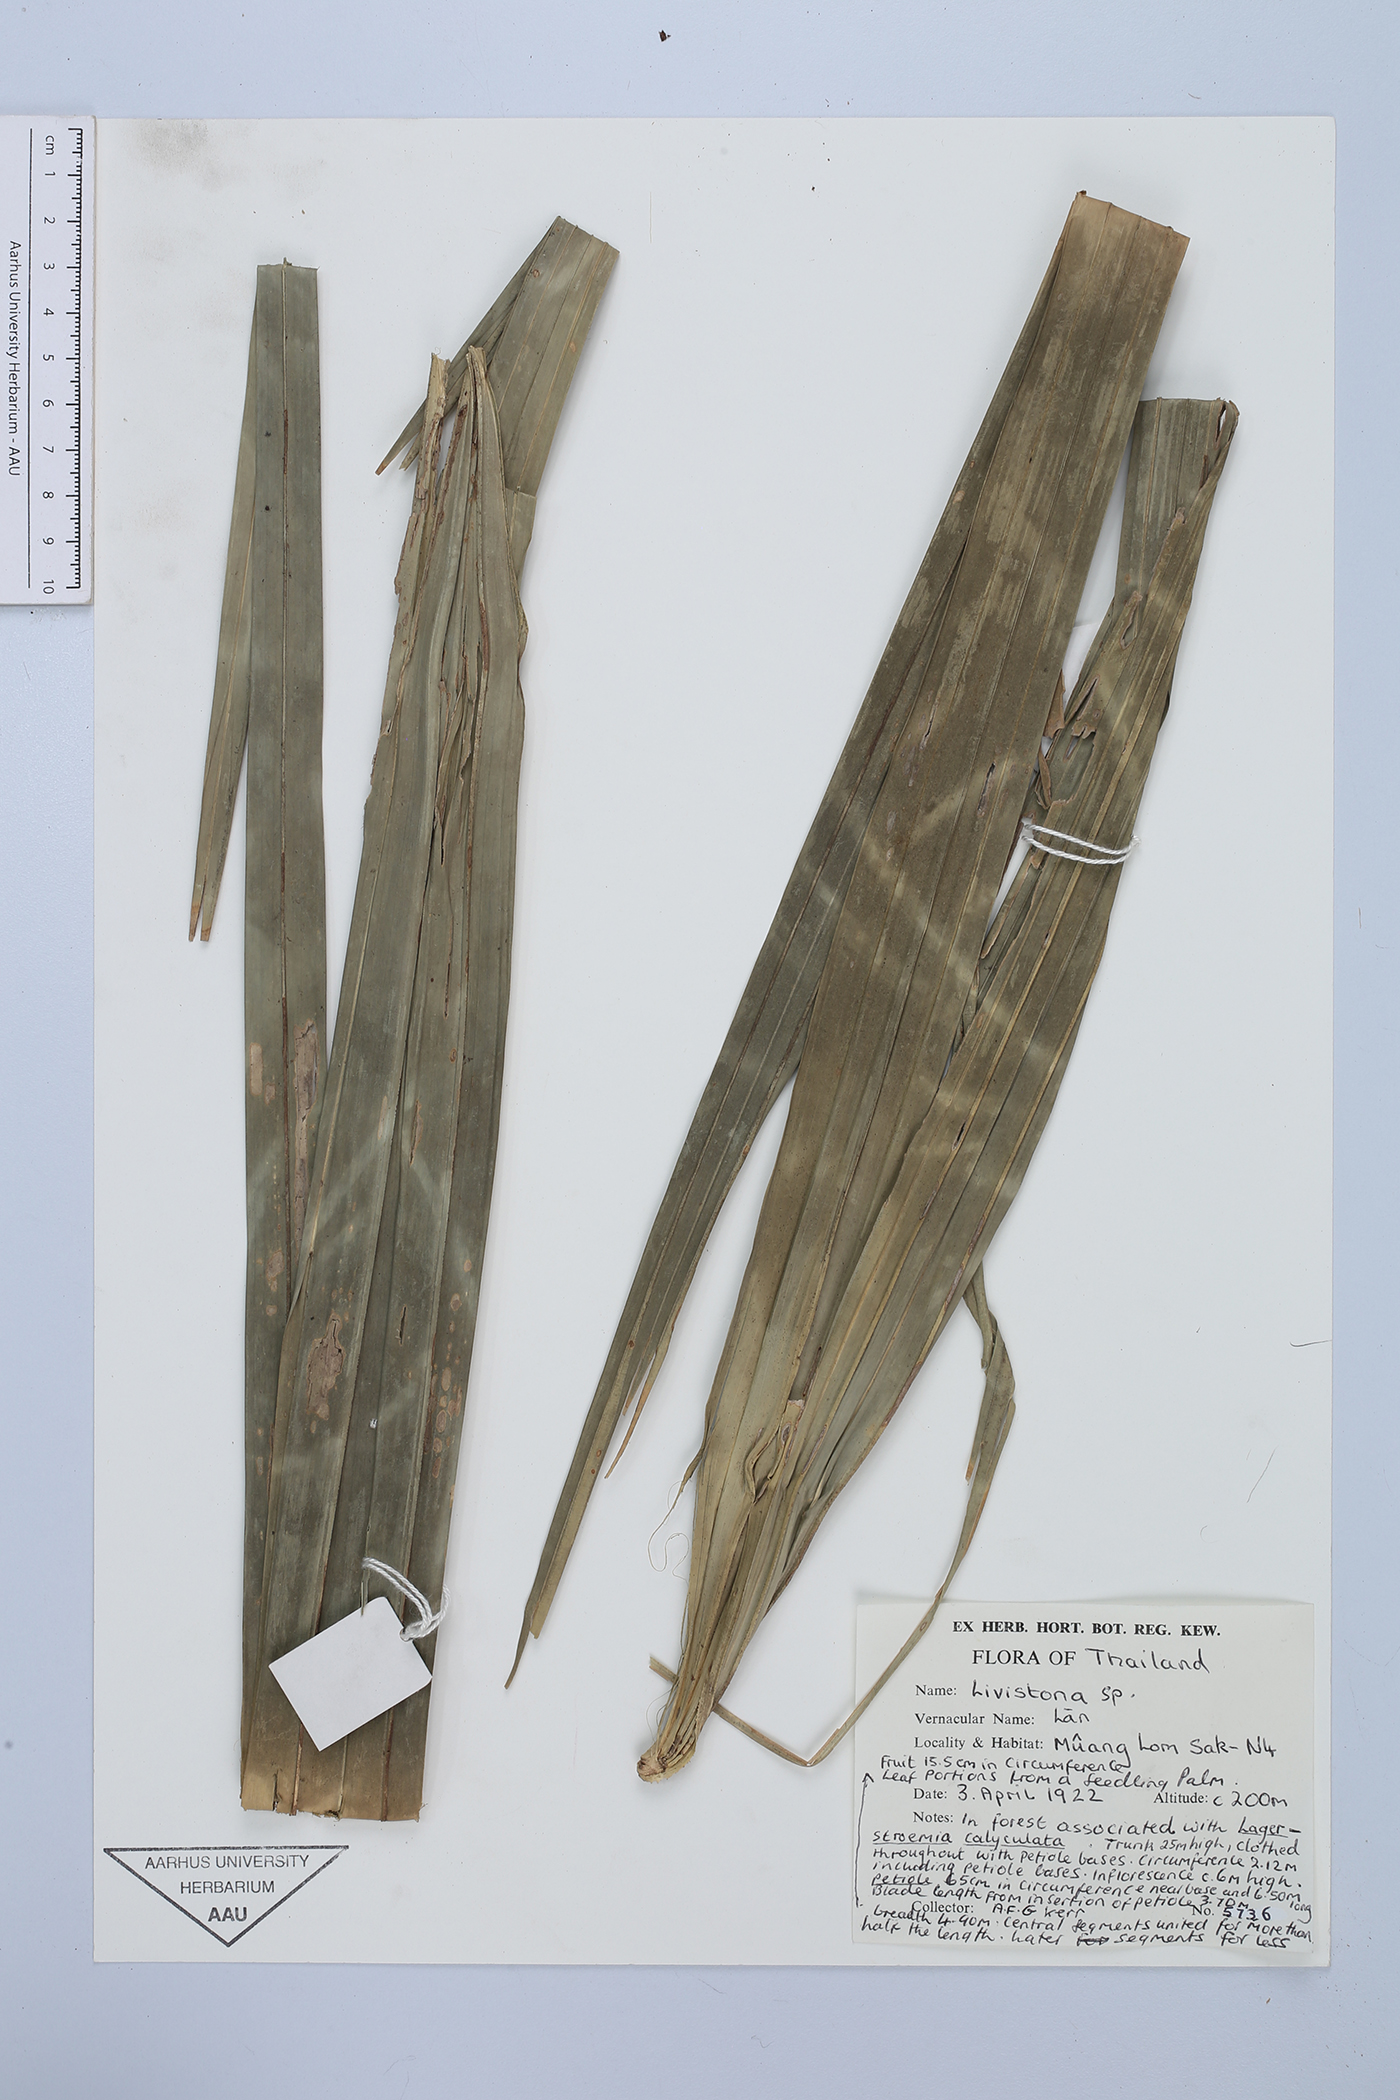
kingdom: Plantae
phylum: Tracheophyta
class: Liliopsida
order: Arecales
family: Arecaceae
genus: Livistona
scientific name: Livistona
